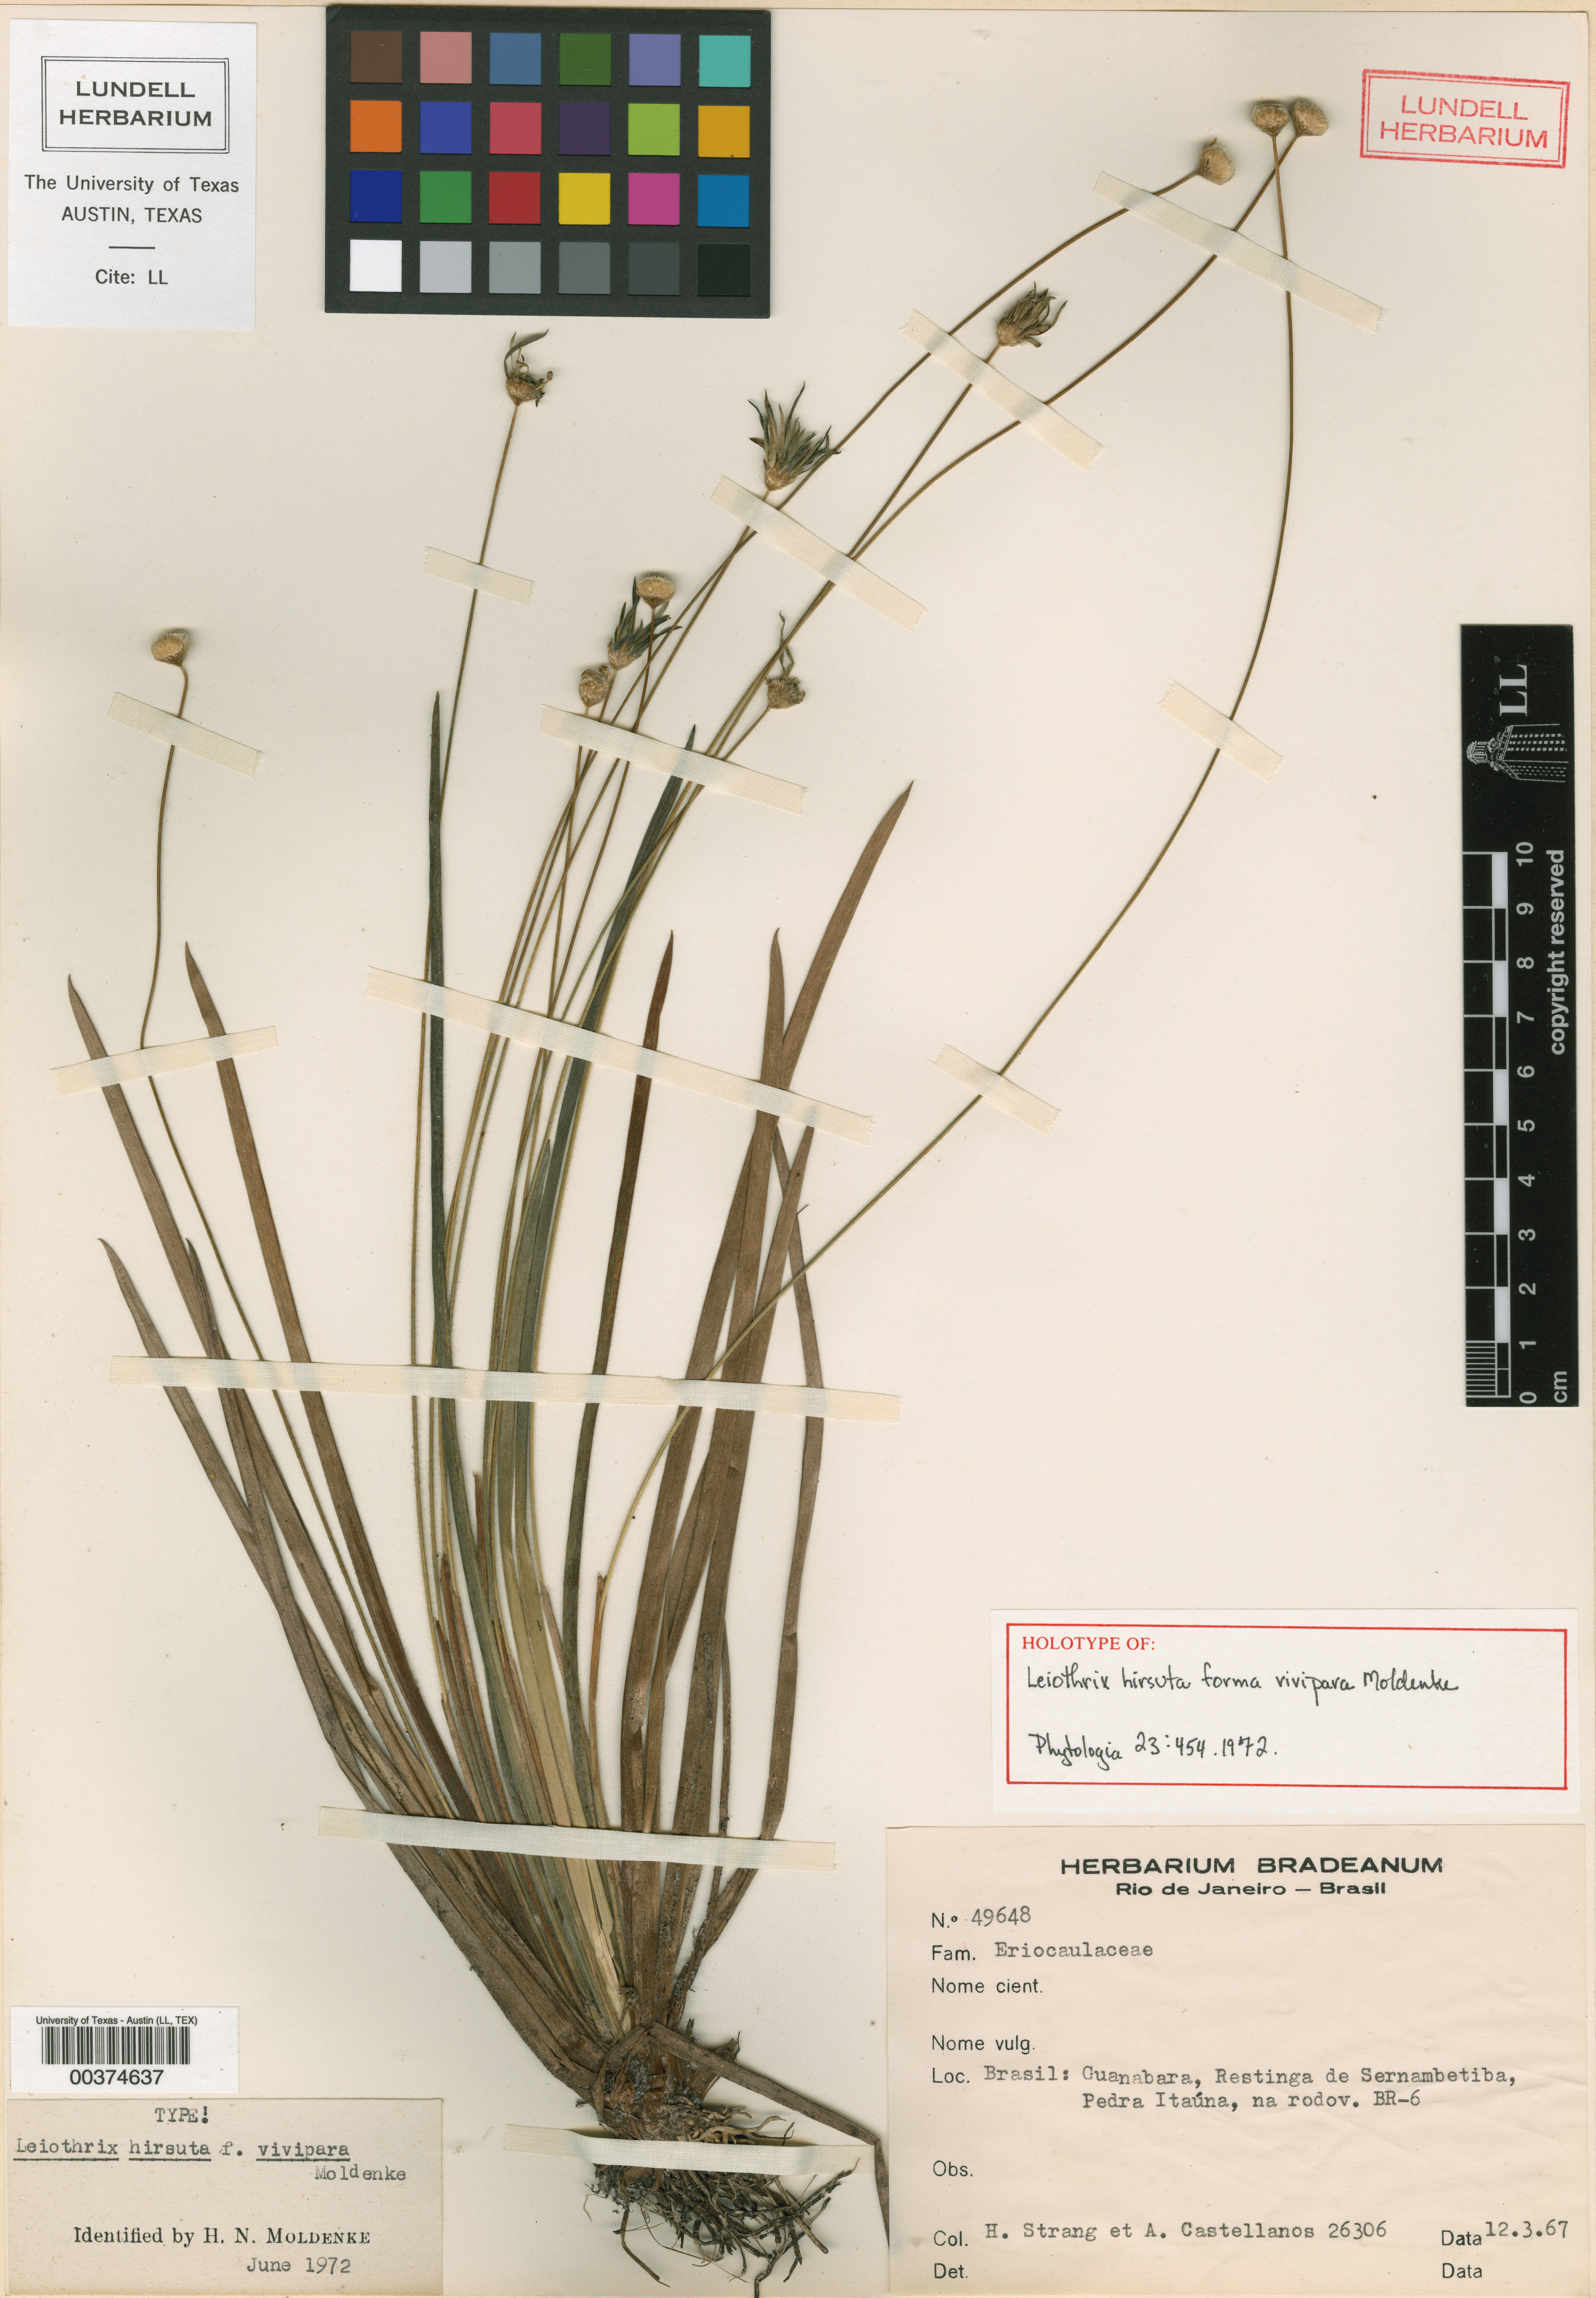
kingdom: Plantae
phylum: Tracheophyta
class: Magnoliopsida
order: Malpighiales
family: Hypericaceae
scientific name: Hypericaceae
